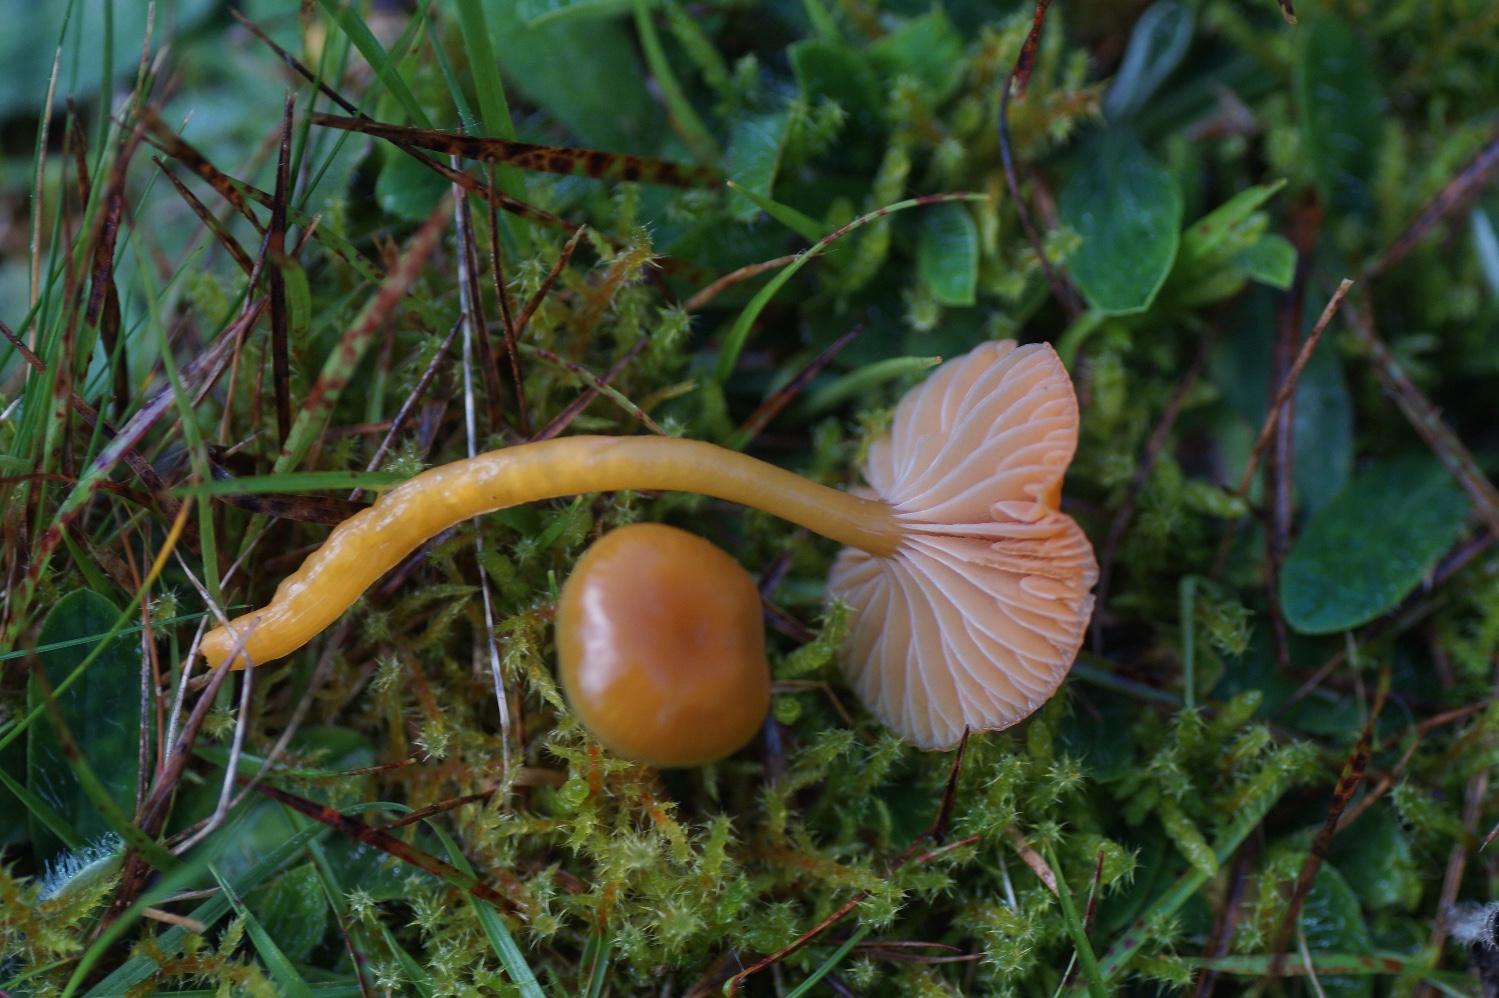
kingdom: Fungi
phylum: Basidiomycota
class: Agaricomycetes
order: Agaricales
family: Hygrophoraceae
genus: Gliophorus
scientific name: Gliophorus laetus
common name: brusk-vokshat
